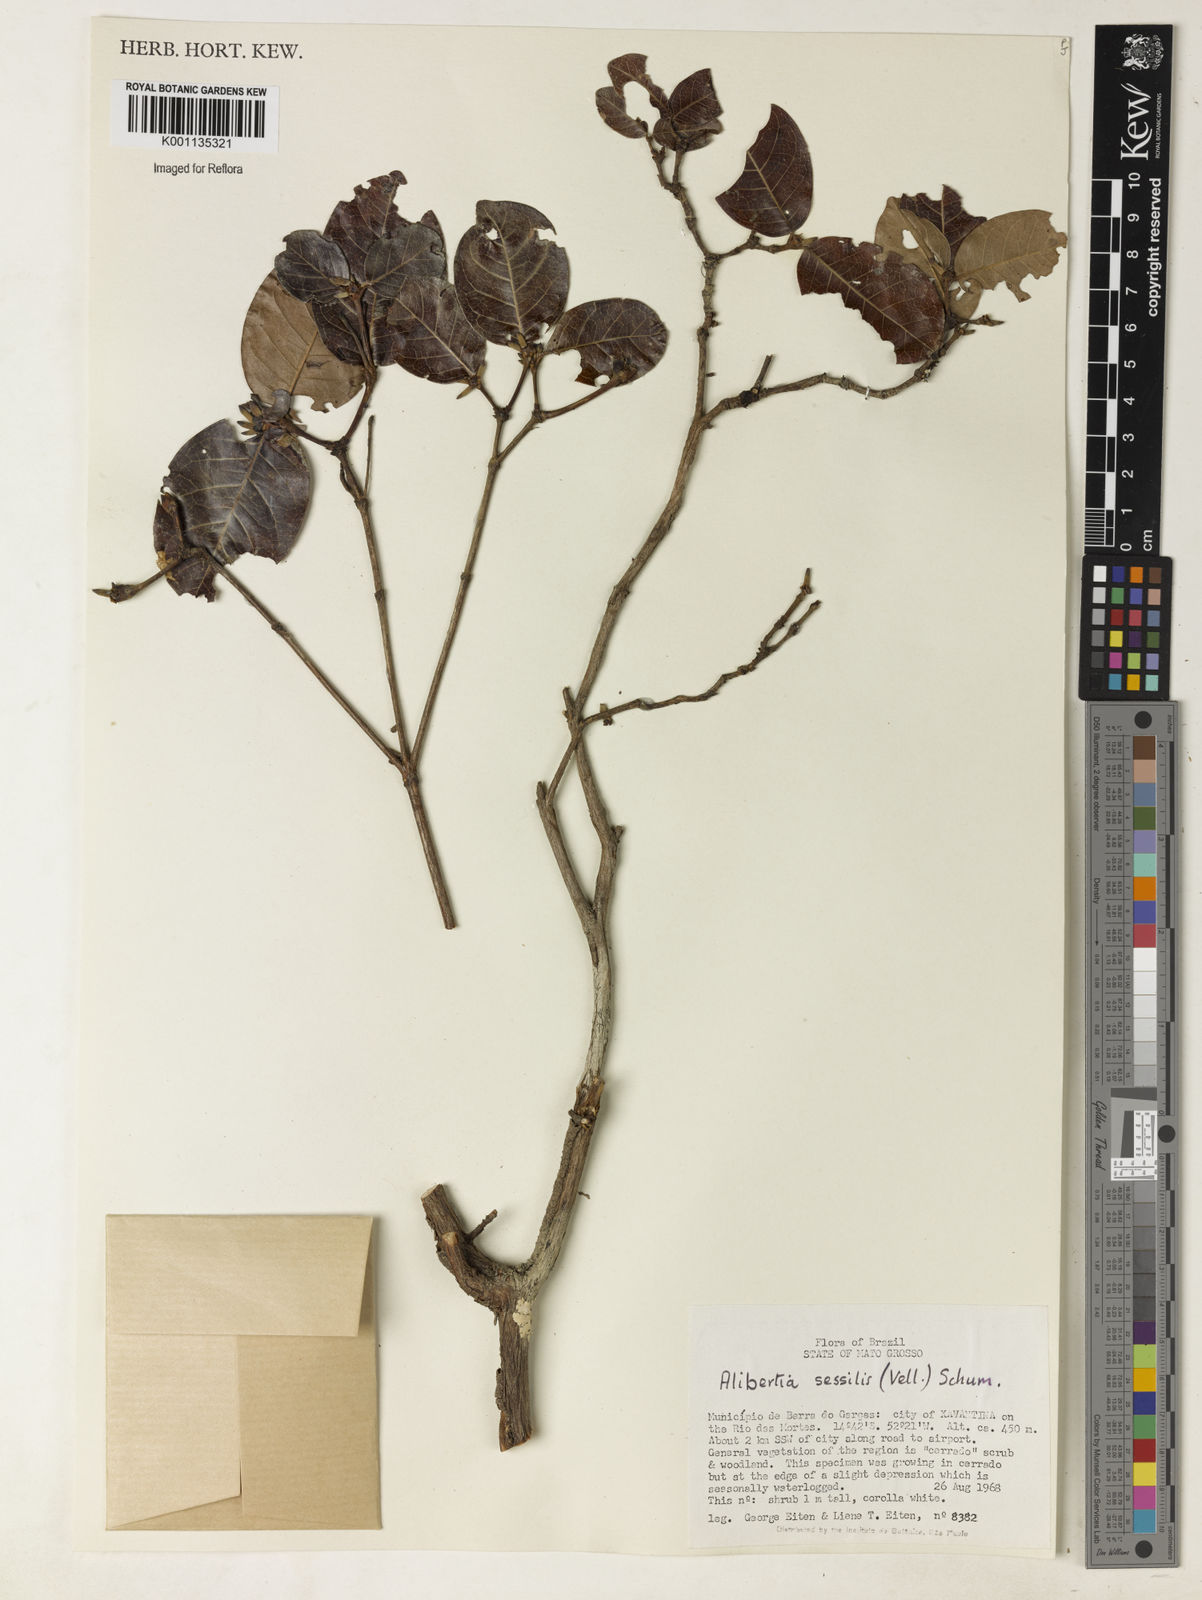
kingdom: Plantae
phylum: Tracheophyta
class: Magnoliopsida
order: Gentianales
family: Rubiaceae
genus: Cordiera
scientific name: Cordiera concolor
